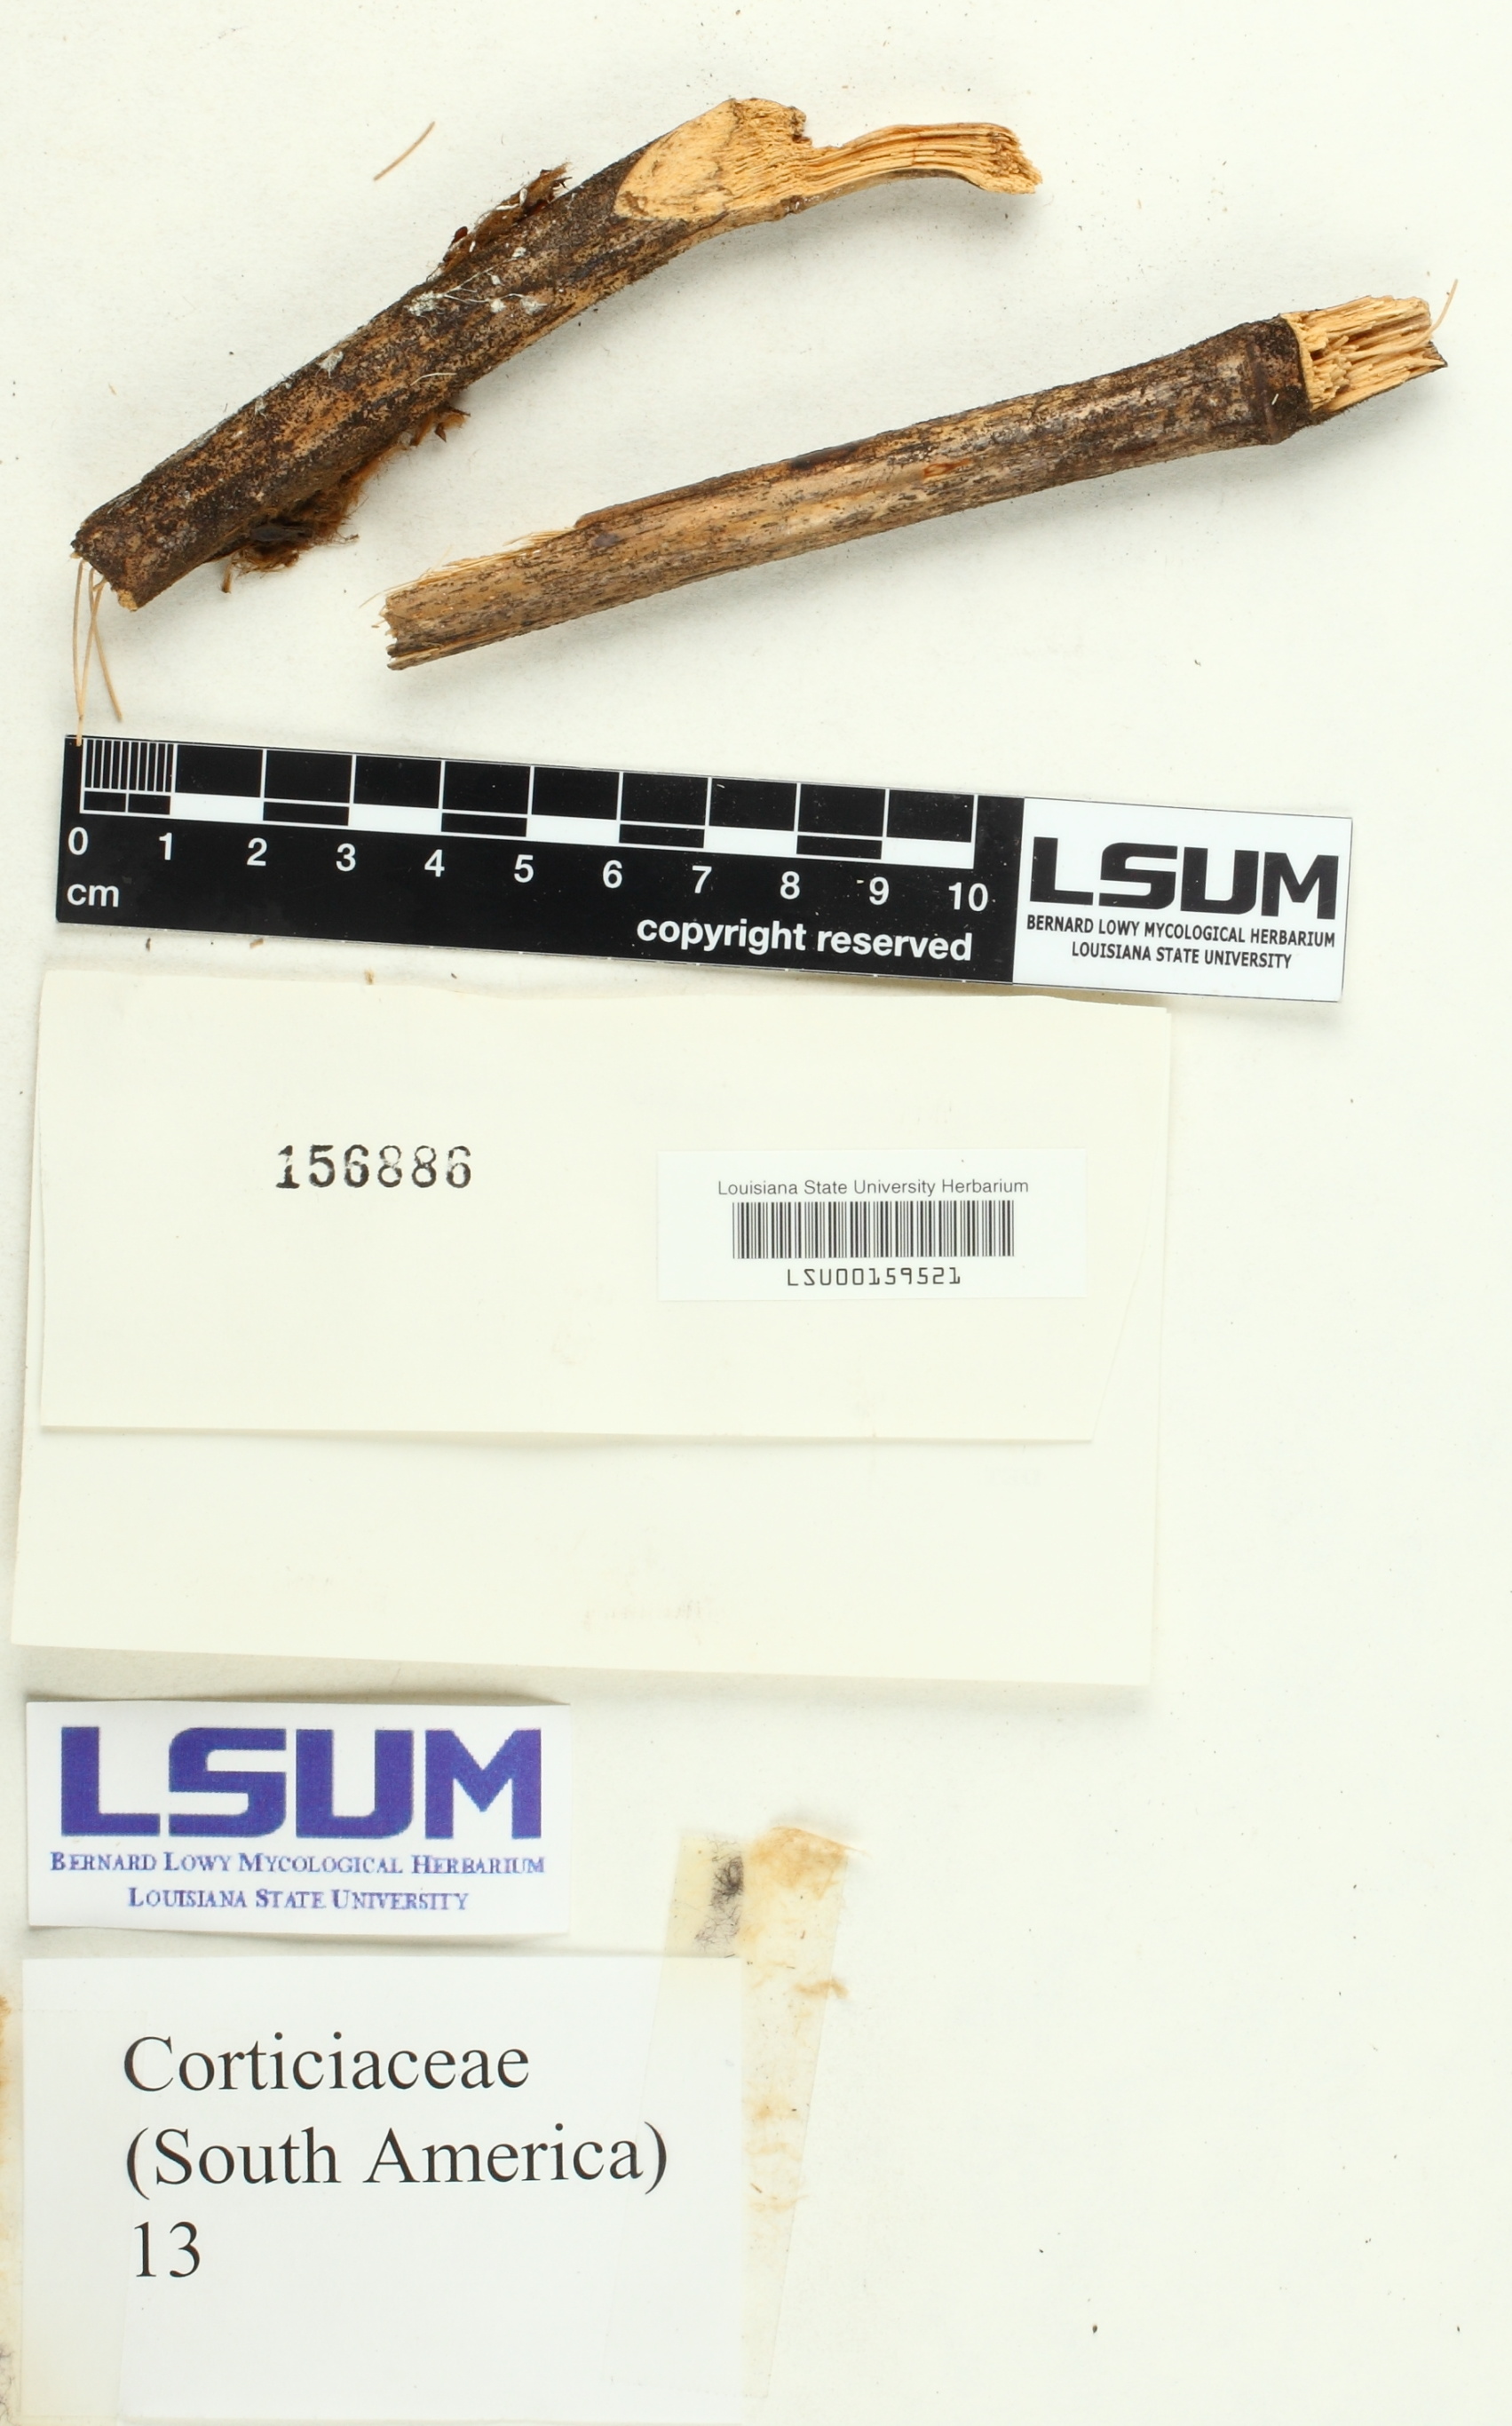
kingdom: Fungi
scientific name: Fungi
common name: Fungi
